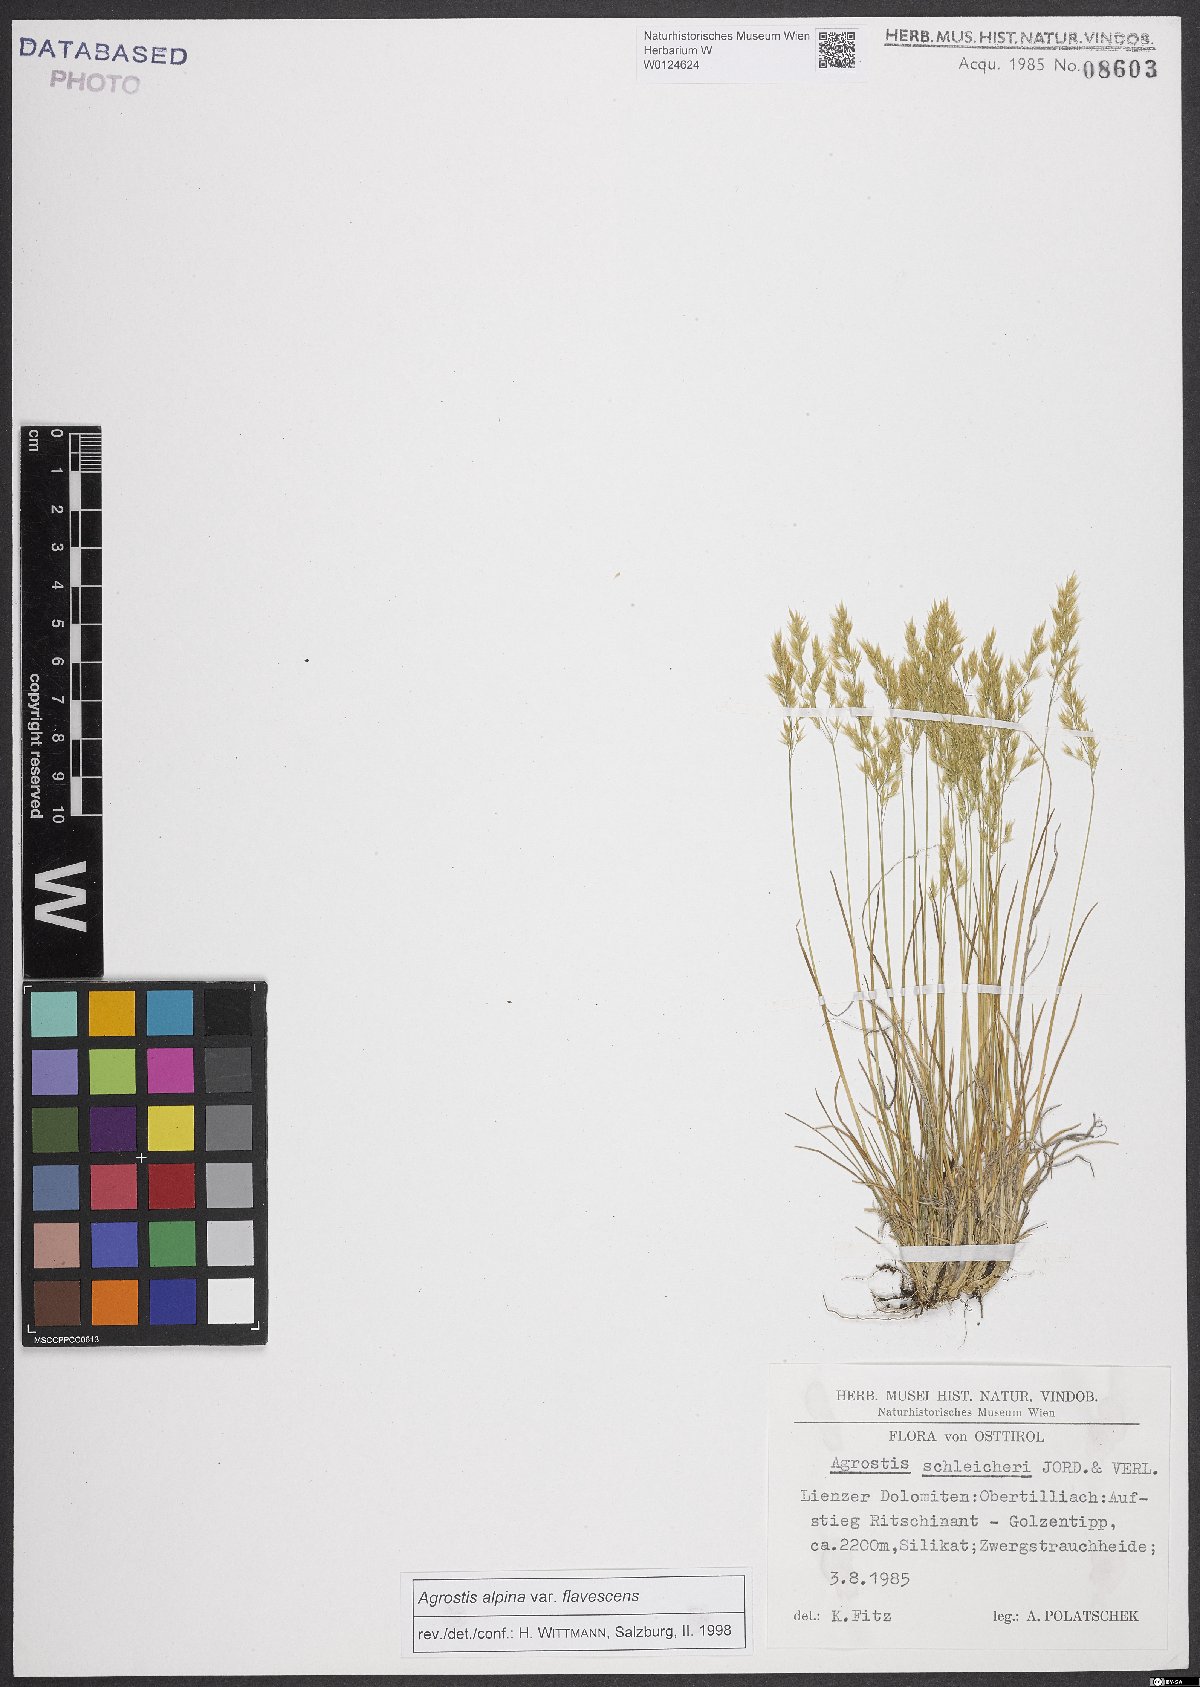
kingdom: Plantae
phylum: Tracheophyta
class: Liliopsida
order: Poales
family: Poaceae
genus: Alpagrostis
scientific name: Alpagrostis alpina
